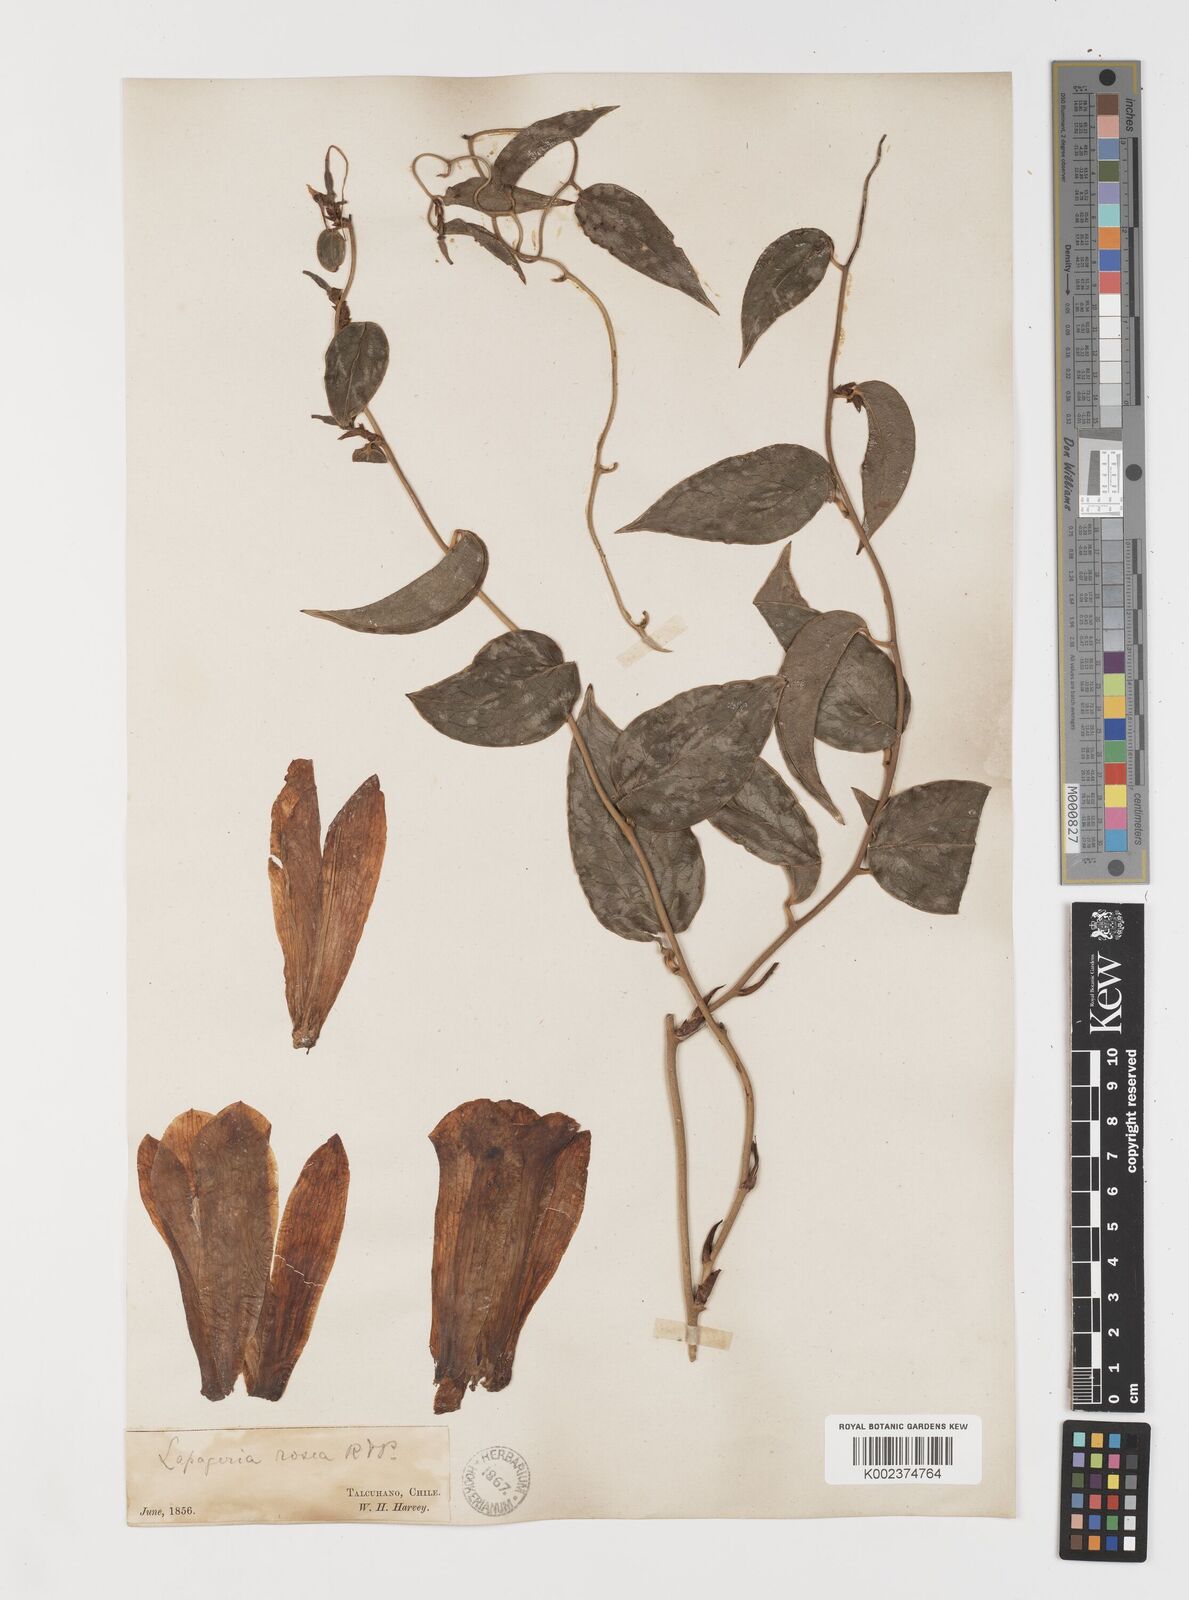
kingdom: Plantae
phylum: Tracheophyta
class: Liliopsida
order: Liliales
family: Philesiaceae
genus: Lapageria
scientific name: Lapageria rosea
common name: Chilean-bellflower
